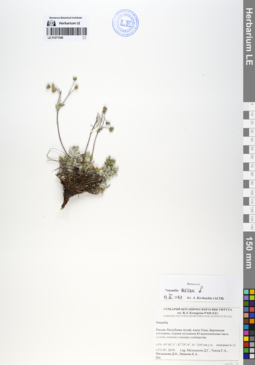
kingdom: Plantae
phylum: Tracheophyta
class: Magnoliopsida
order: Rosales
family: Rosaceae
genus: Potentilla
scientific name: Potentilla sericea
